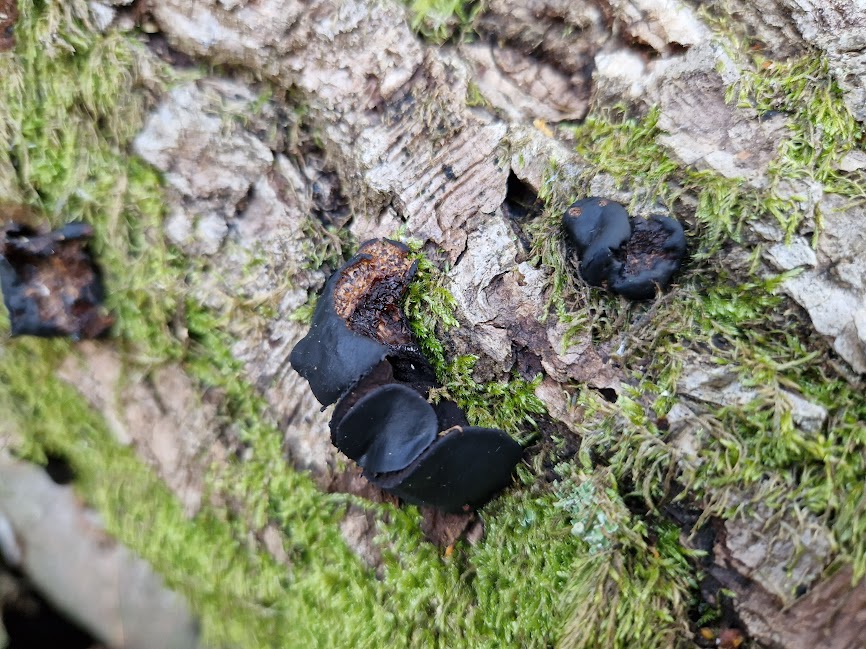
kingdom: Fungi
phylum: Ascomycota
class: Leotiomycetes
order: Phacidiales
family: Phacidiaceae
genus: Bulgaria
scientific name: Bulgaria inquinans
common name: afsmittende topsvamp
